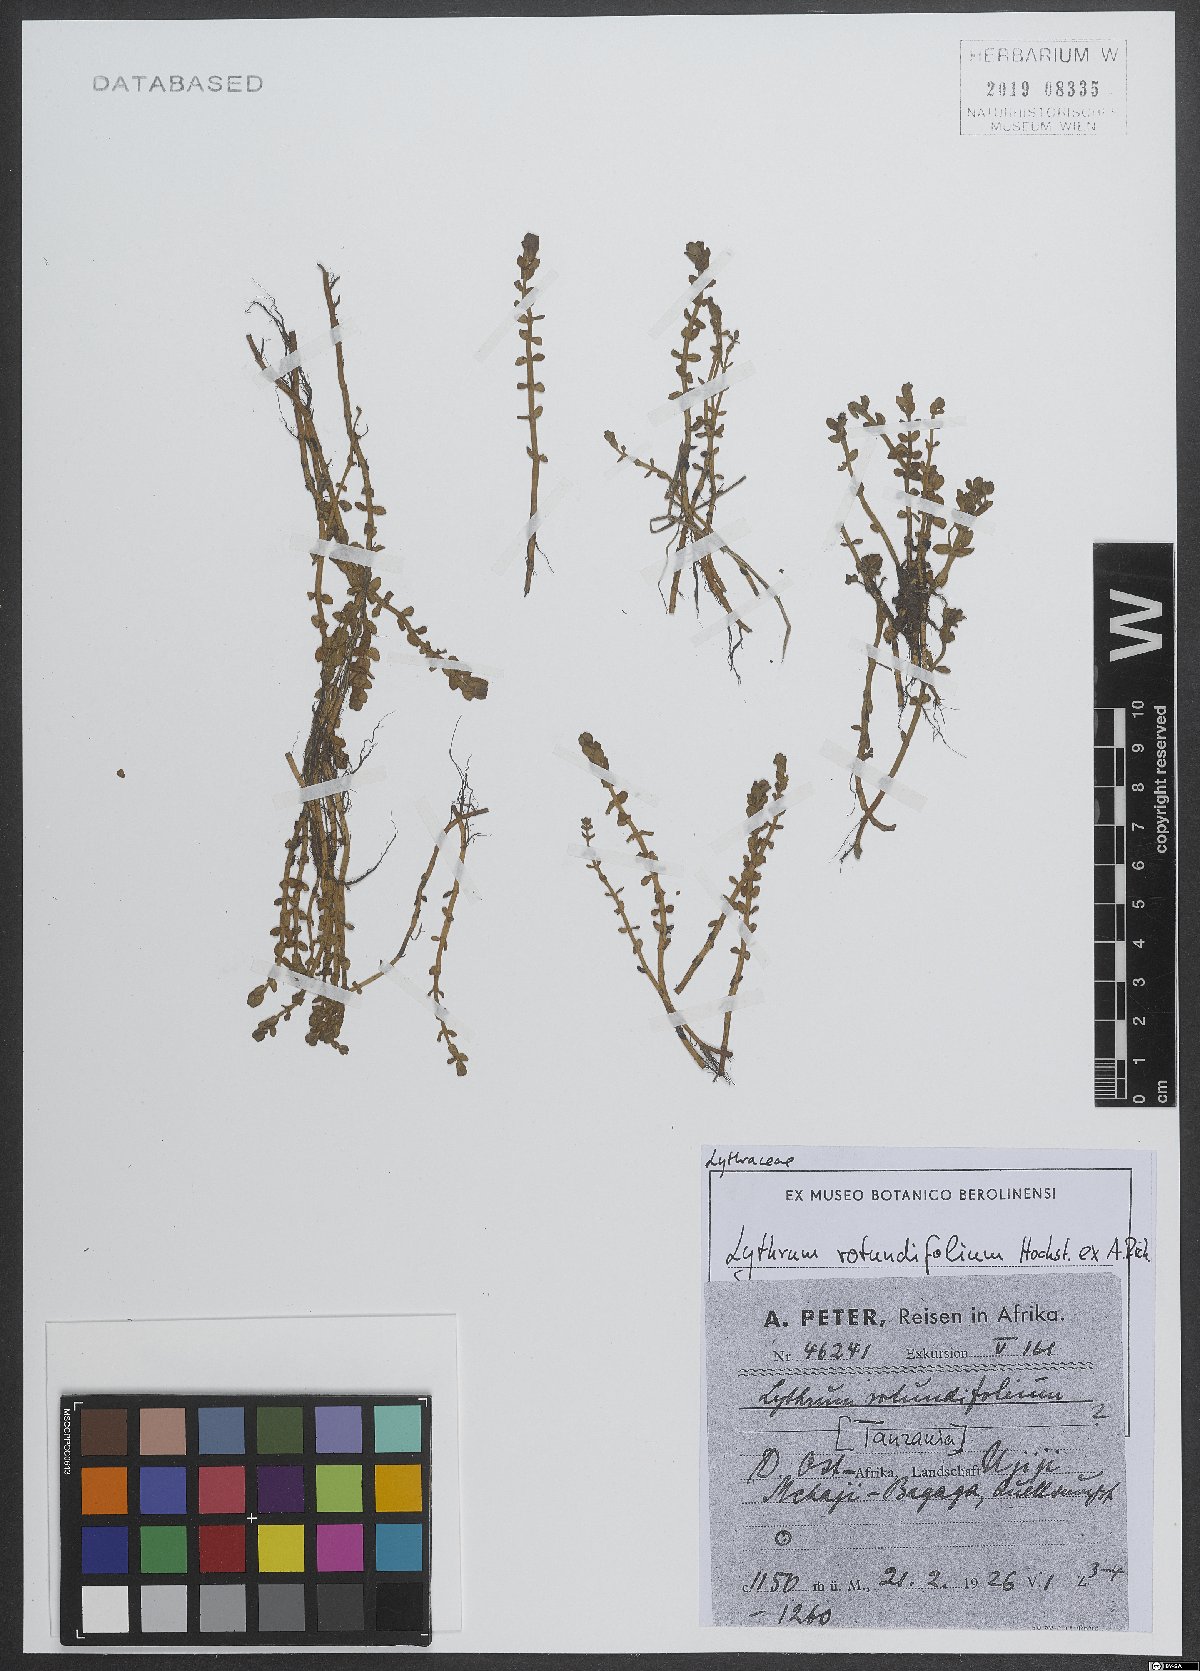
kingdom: Plantae
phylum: Tracheophyta
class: Magnoliopsida
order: Myrtales
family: Lythraceae
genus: Lythrum
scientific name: Lythrum rotundifolium
